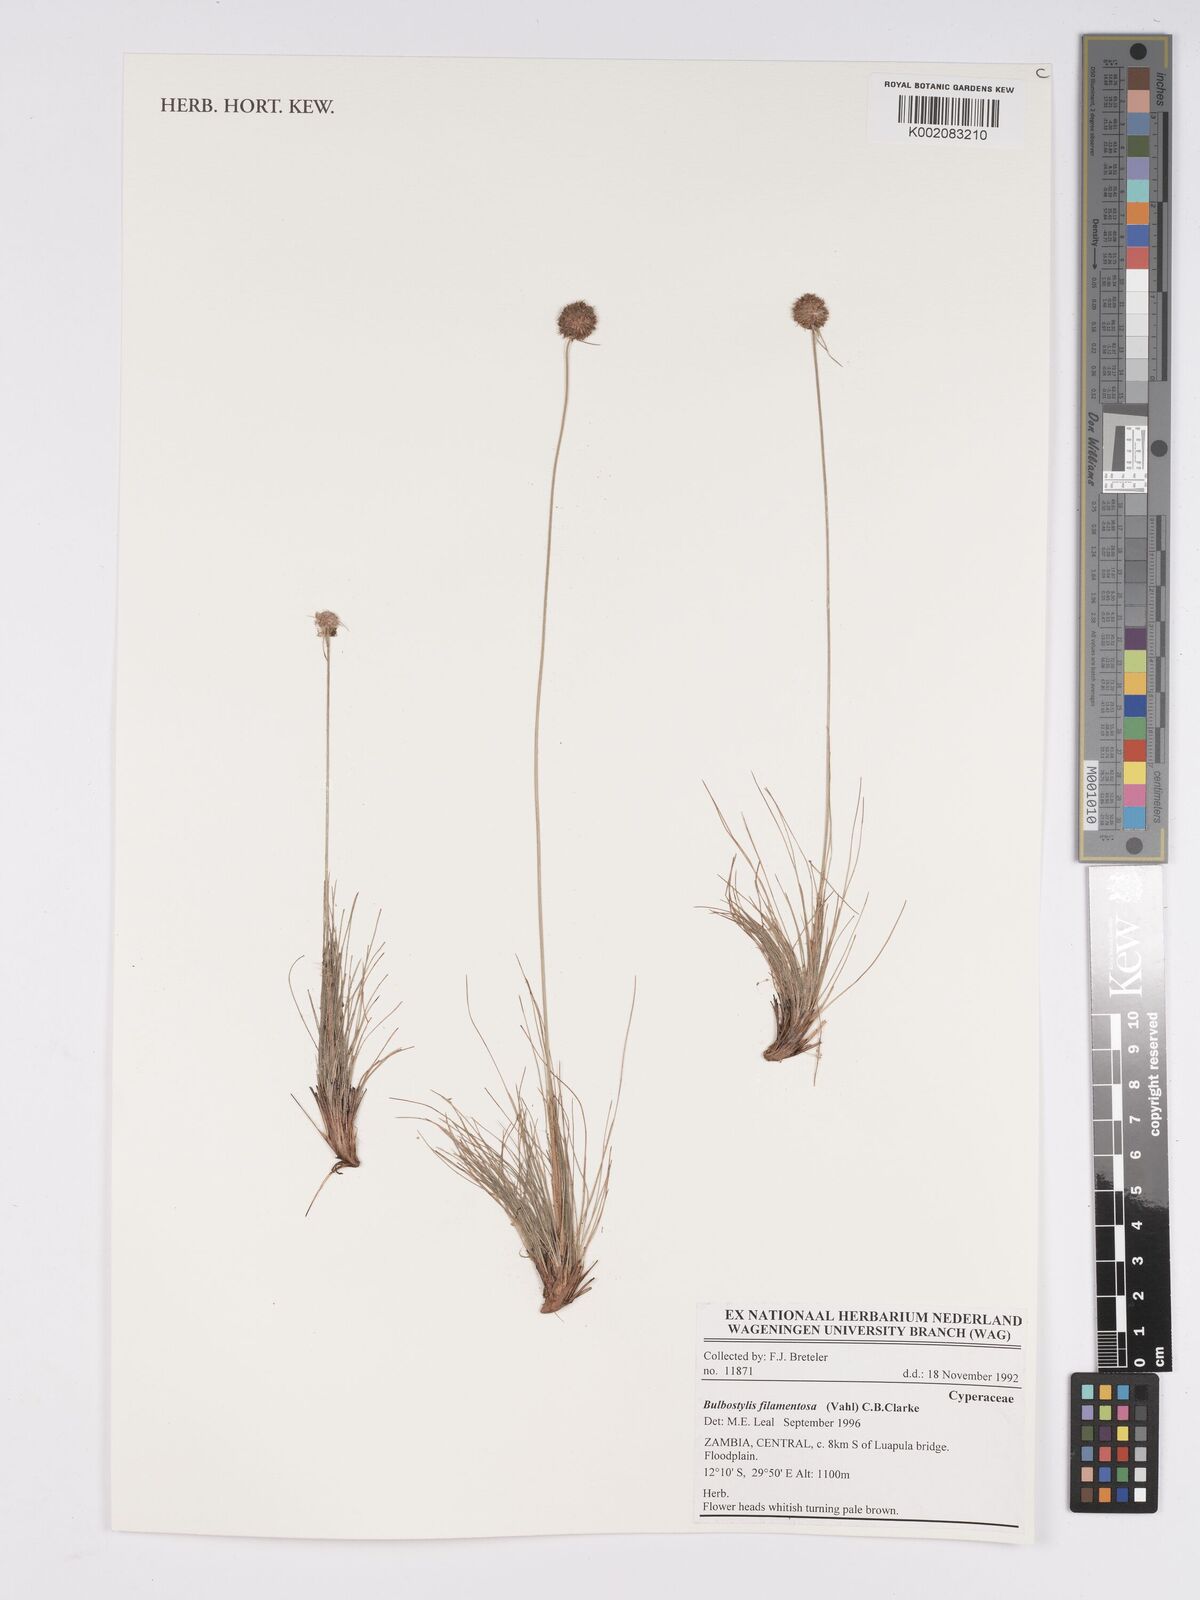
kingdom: Plantae
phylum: Tracheophyta
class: Liliopsida
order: Poales
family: Cyperaceae
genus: Bulbostylis
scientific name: Bulbostylis filamentosa
